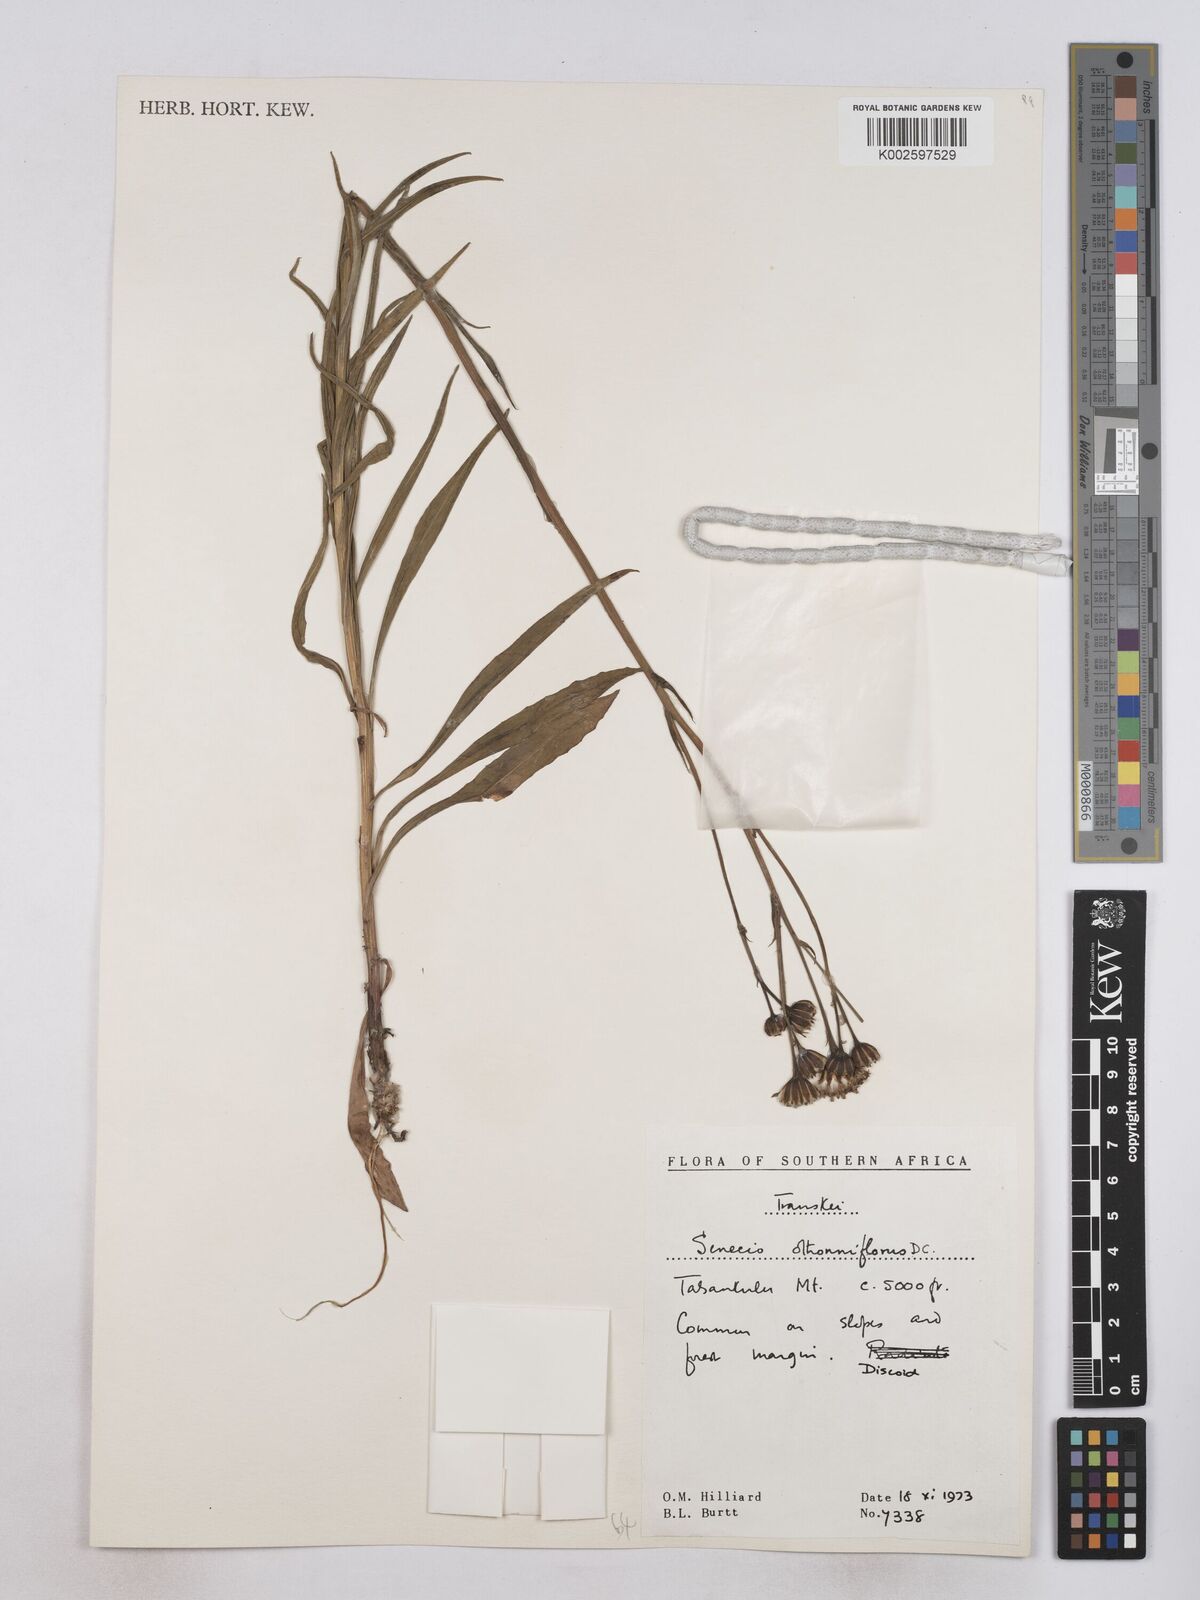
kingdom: Plantae
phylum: Tracheophyta
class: Magnoliopsida
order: Asterales
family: Asteraceae
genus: Senecio
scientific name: Senecio othonniflorus
